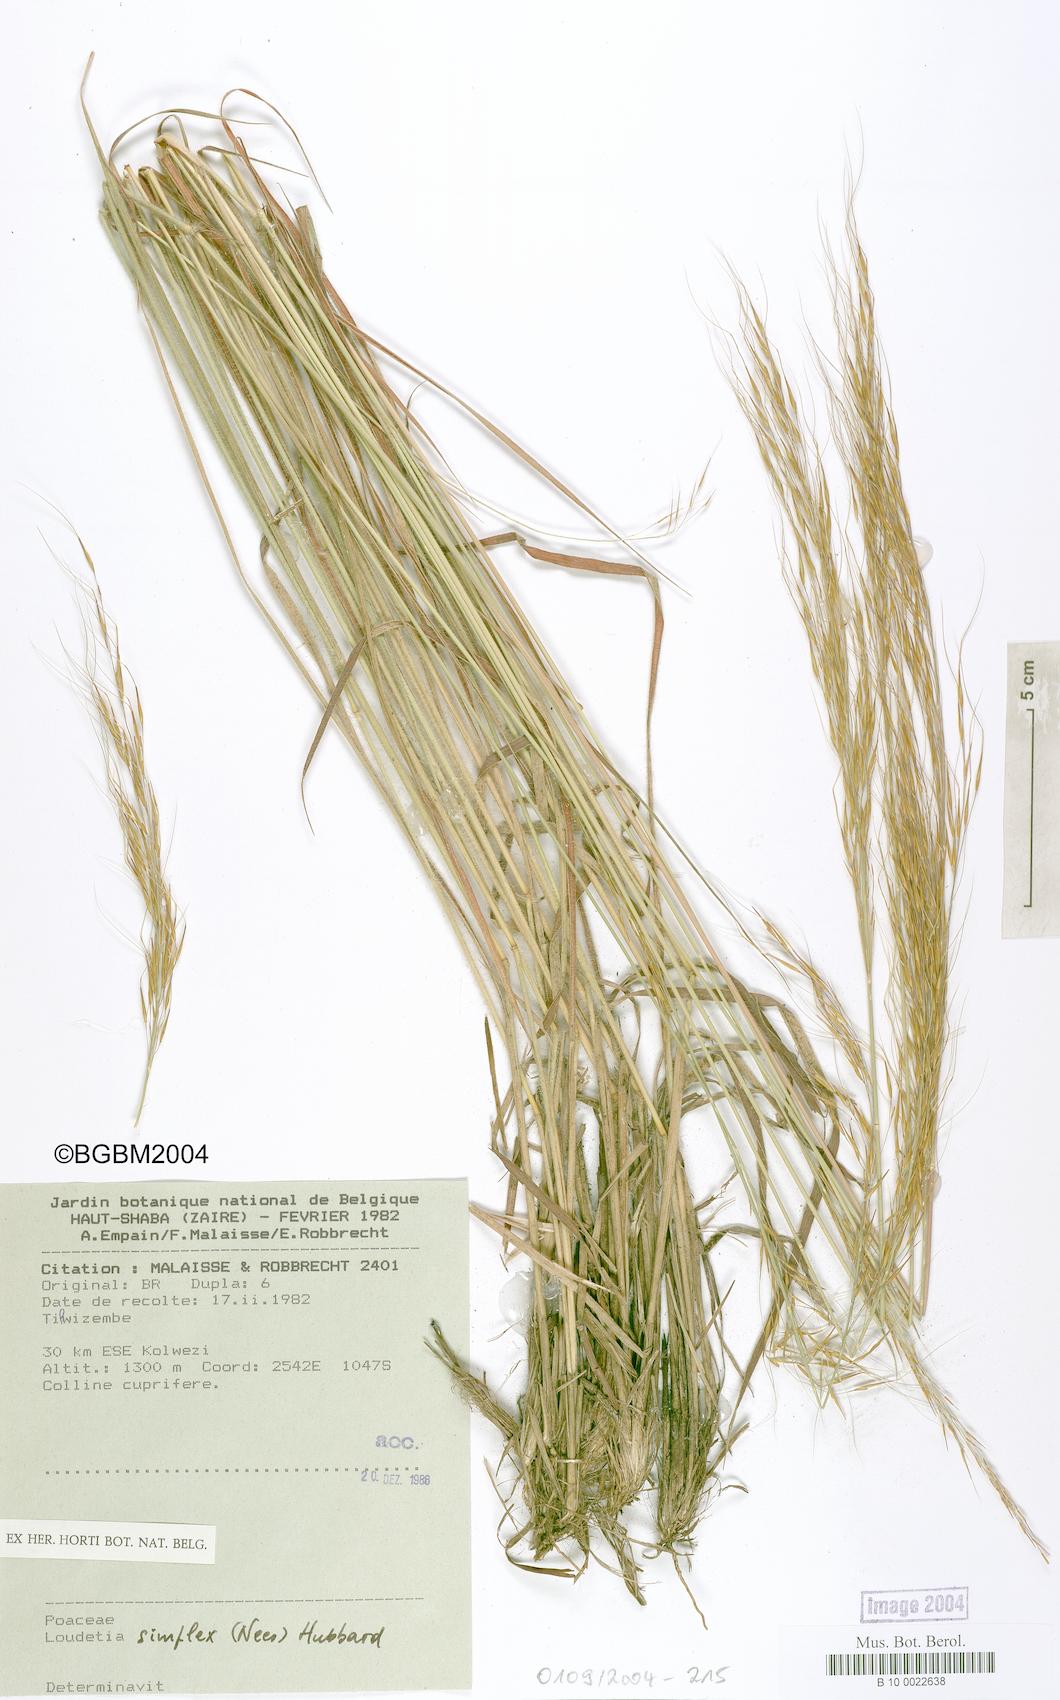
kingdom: Plantae
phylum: Tracheophyta
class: Liliopsida
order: Poales
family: Poaceae
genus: Loudetia
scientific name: Loudetia simplex
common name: Common russet grass
